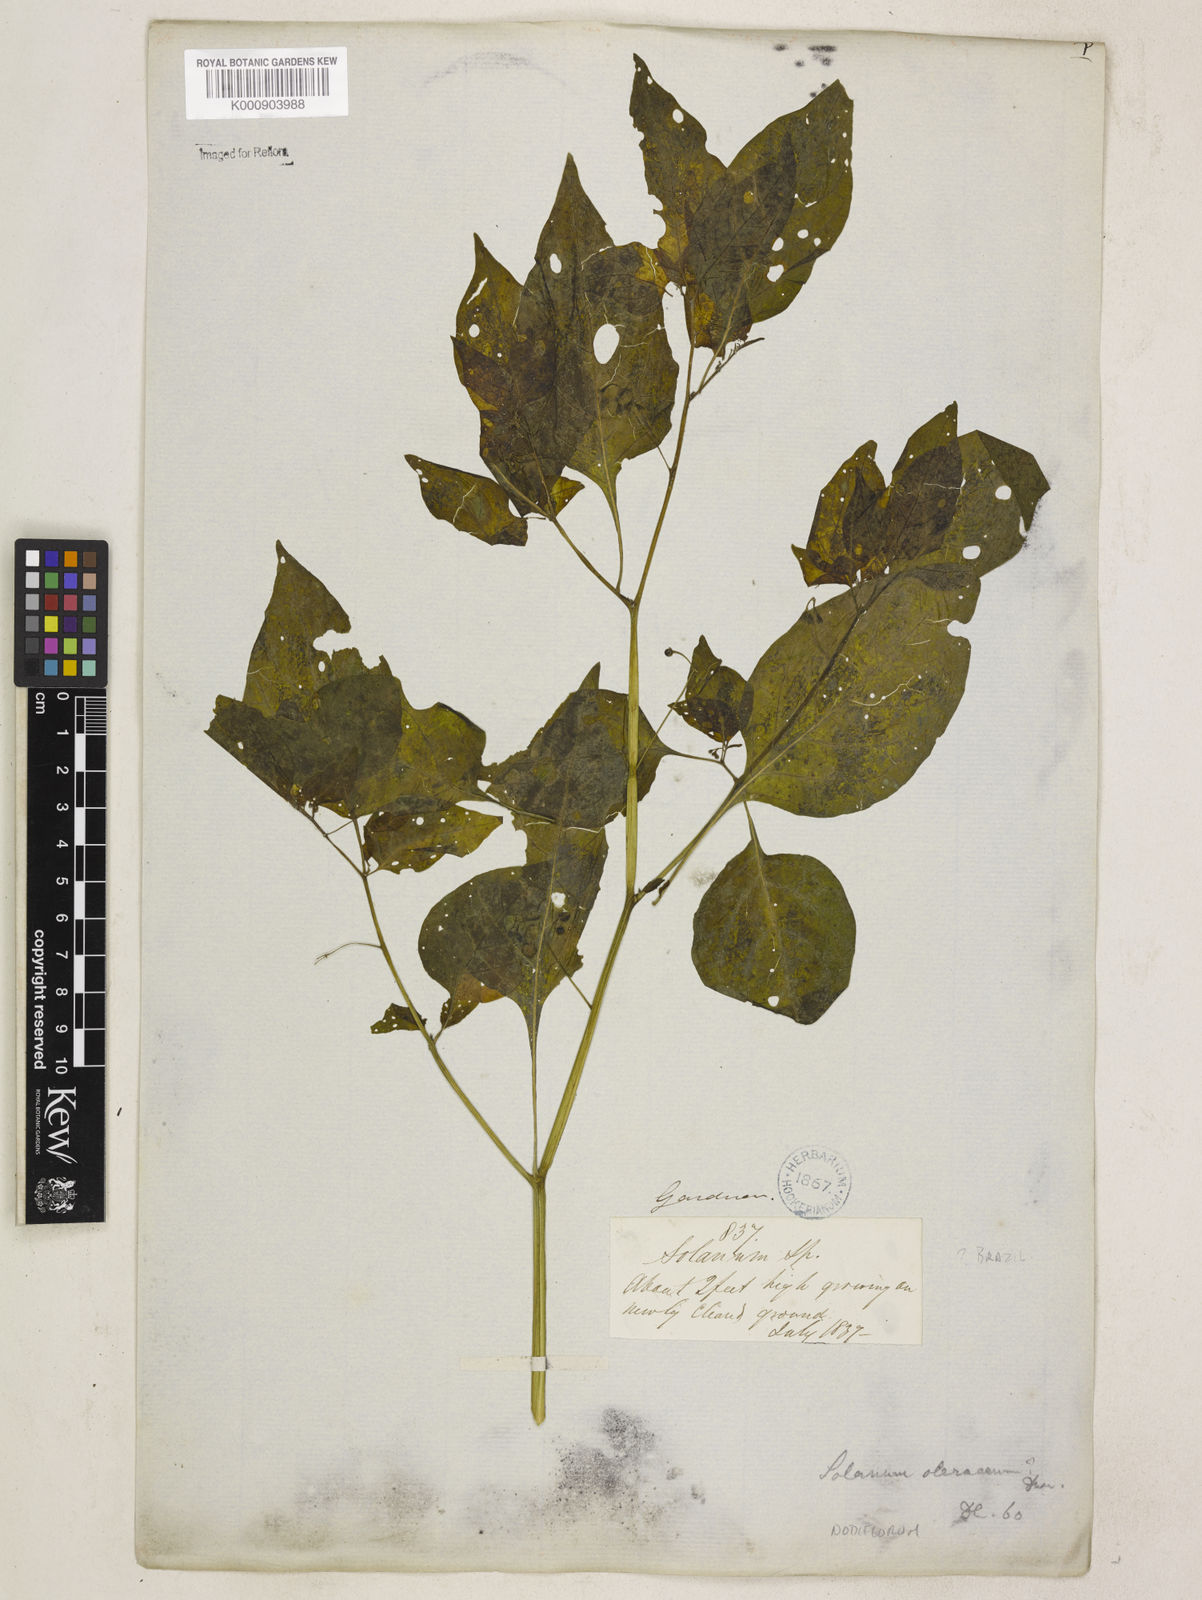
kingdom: Plantae
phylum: Tracheophyta
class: Magnoliopsida
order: Solanales
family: Solanaceae
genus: Solanum
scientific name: Solanum americanum
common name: American black nightshade
